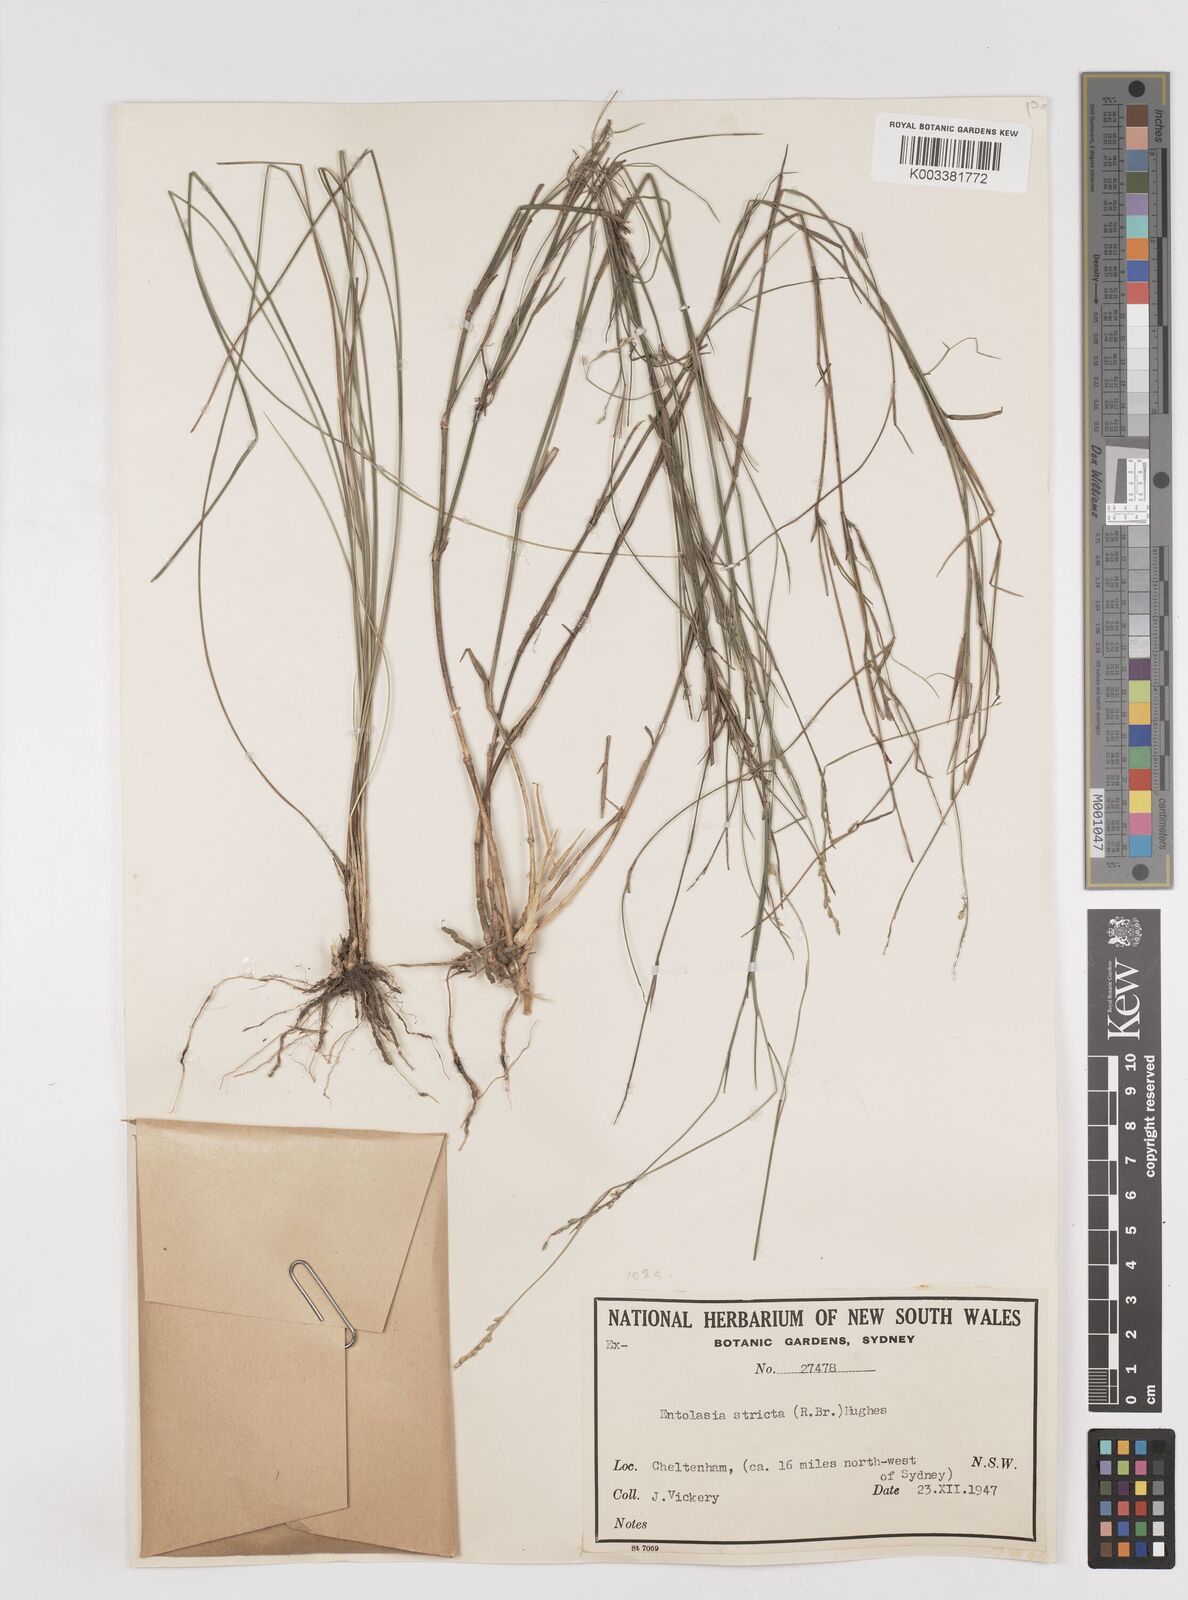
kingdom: Plantae
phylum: Tracheophyta
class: Liliopsida
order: Poales
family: Poaceae
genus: Entolasia
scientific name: Entolasia stricta
